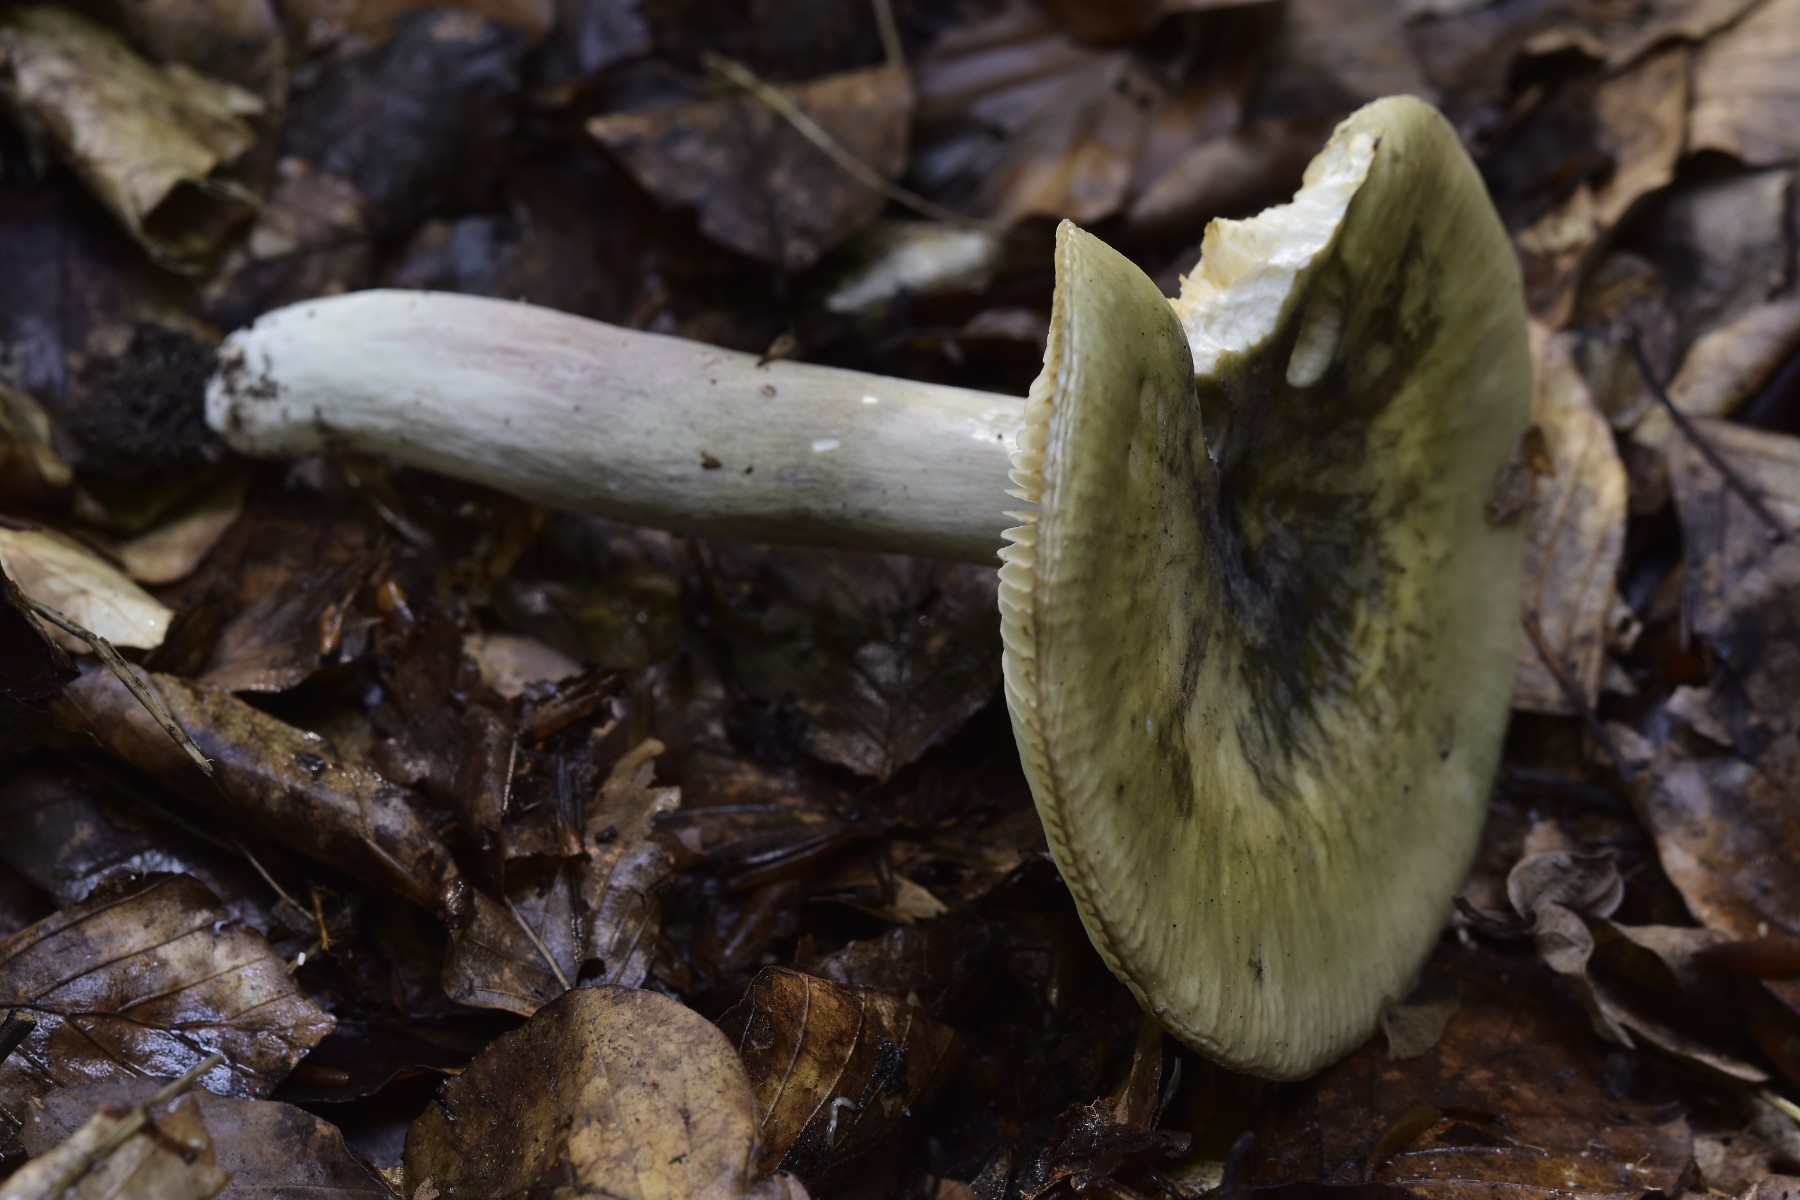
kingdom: Fungi
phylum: Basidiomycota
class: Agaricomycetes
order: Russulales
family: Russulaceae
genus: Russula
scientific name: Russula violeipes
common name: ferskengul skørhat
